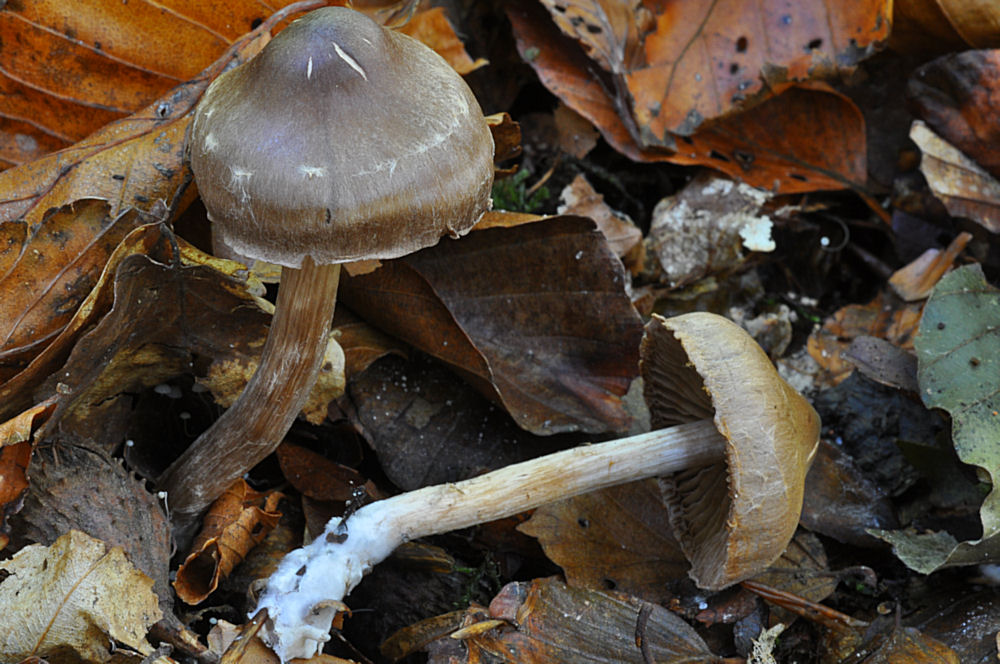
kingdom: Fungi
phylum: Basidiomycota
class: Agaricomycetes
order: Agaricales
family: Cortinariaceae
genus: Cortinarius
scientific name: Cortinarius decipiens
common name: mørkpuklet slørhat
